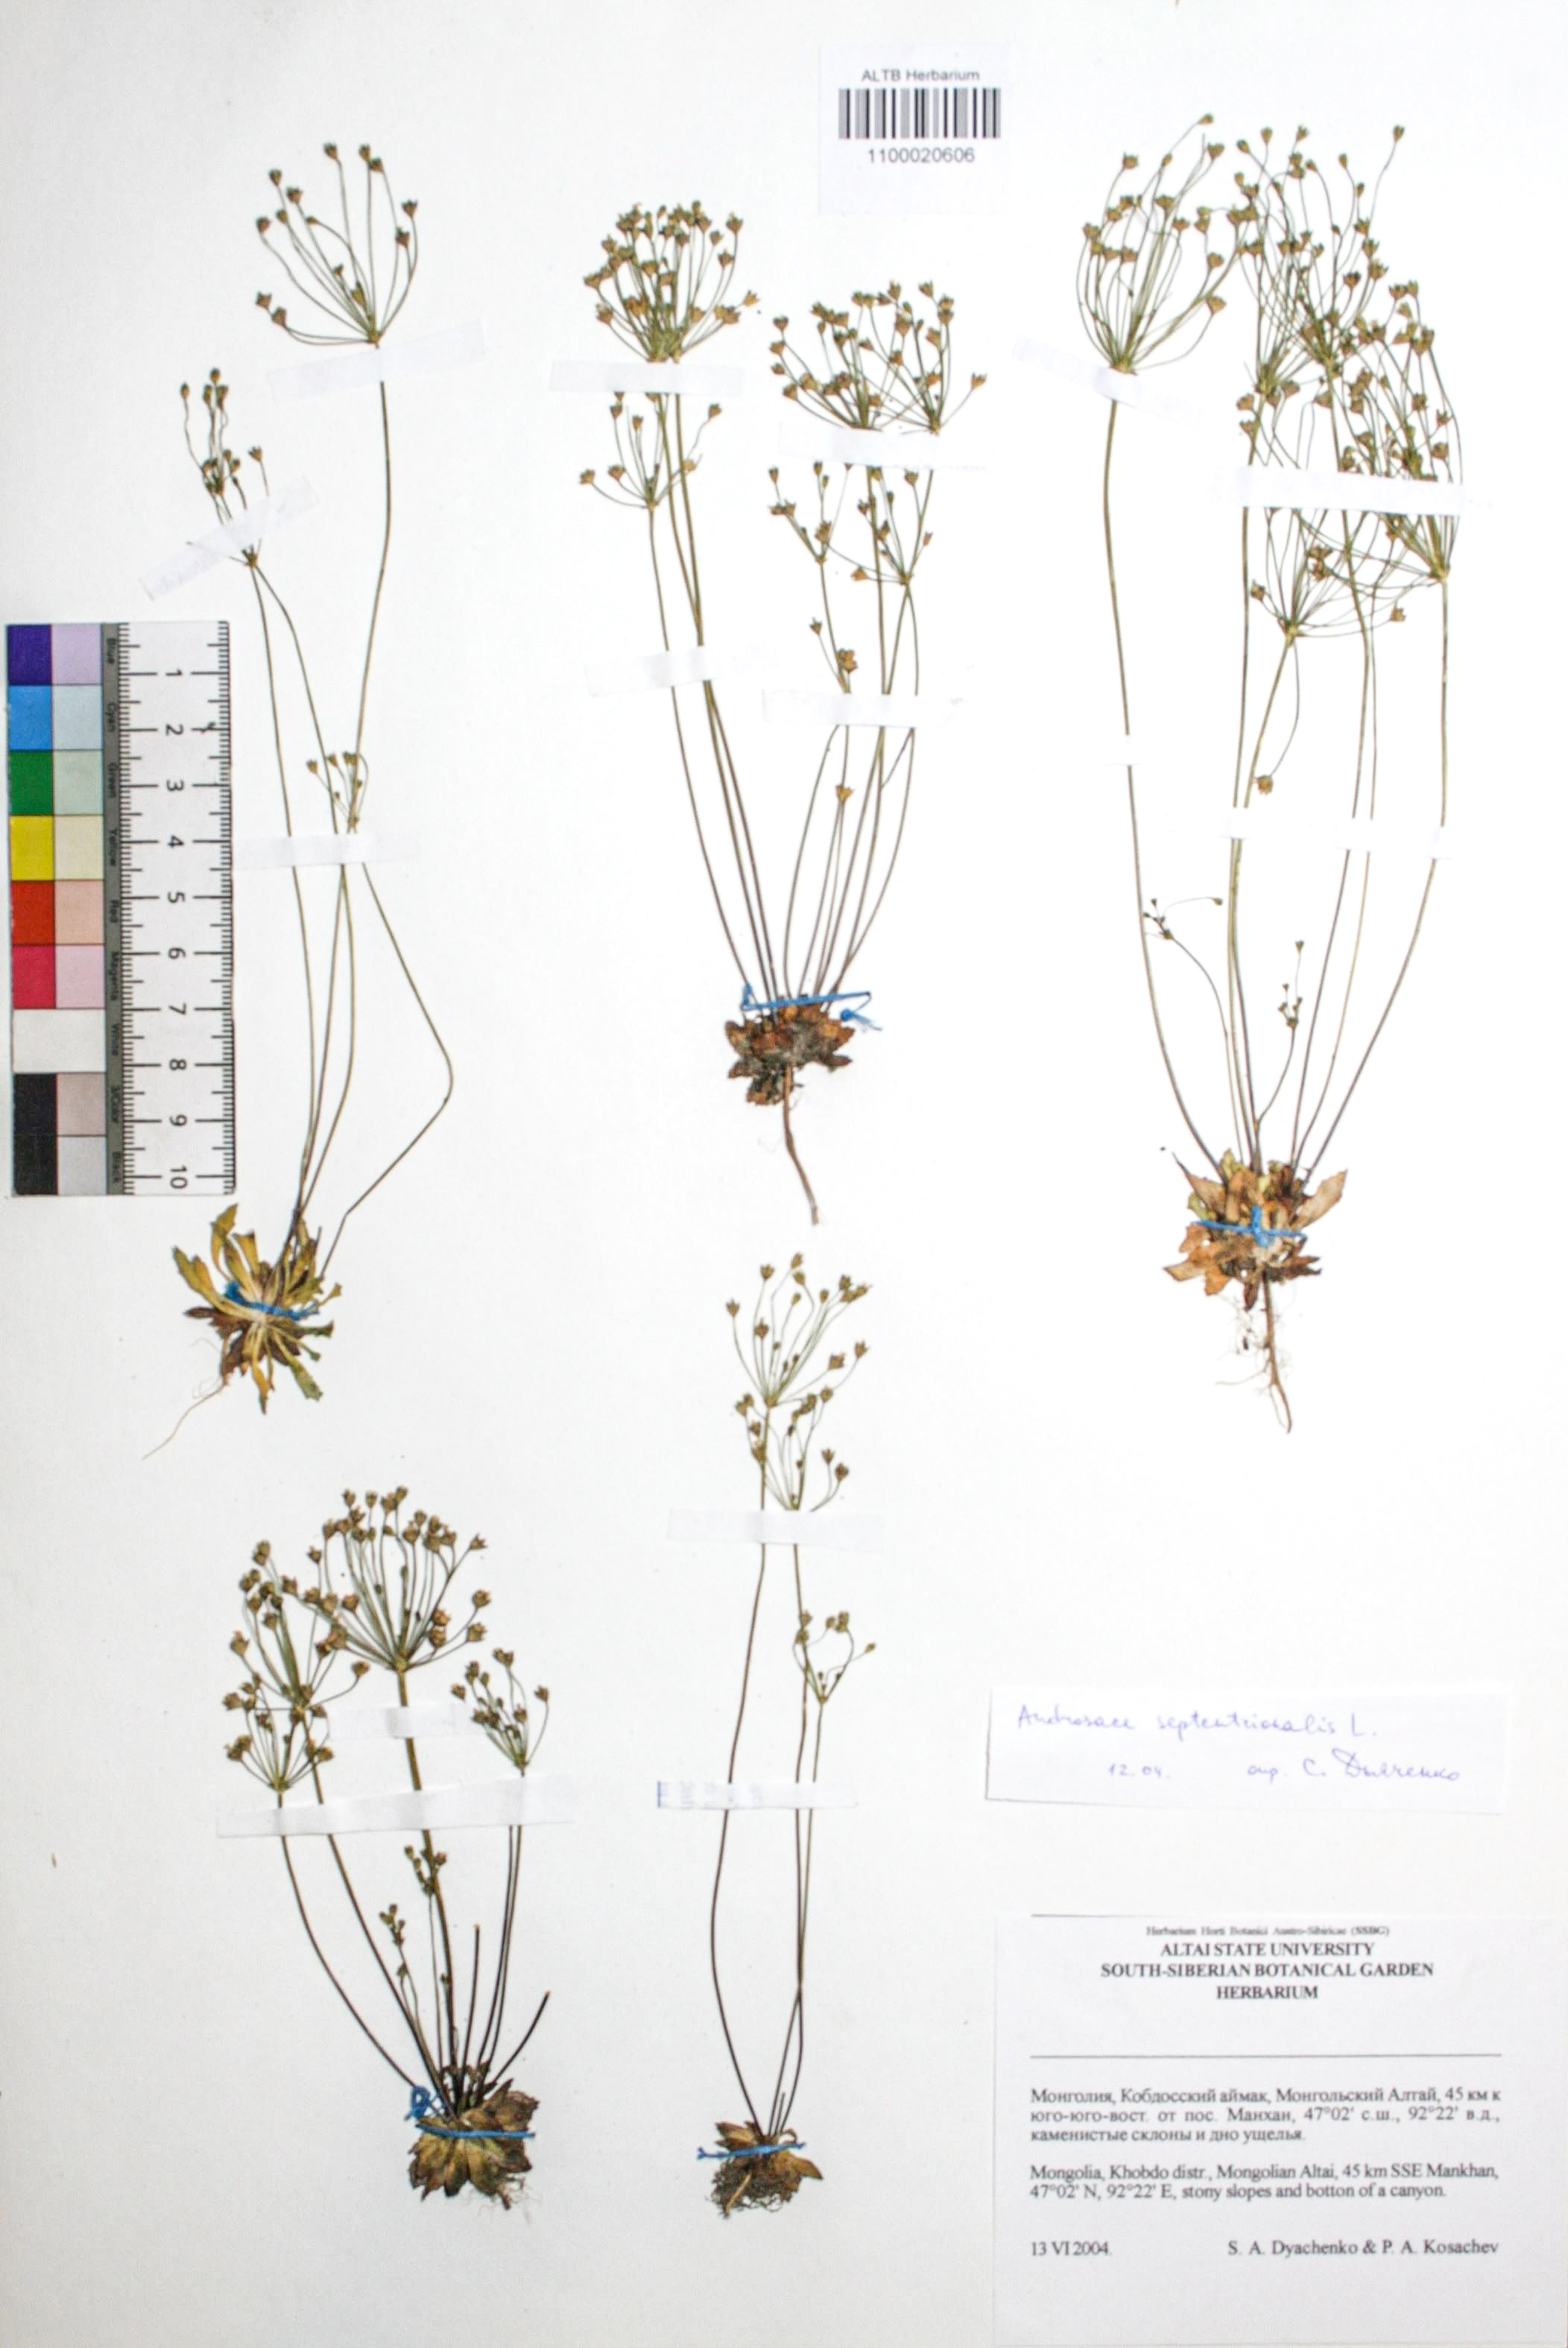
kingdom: Plantae
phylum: Tracheophyta
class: Magnoliopsida
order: Ericales
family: Primulaceae
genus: Androsace
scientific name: Androsace septentrionalis
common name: Hairy northern fairy-candelabra
